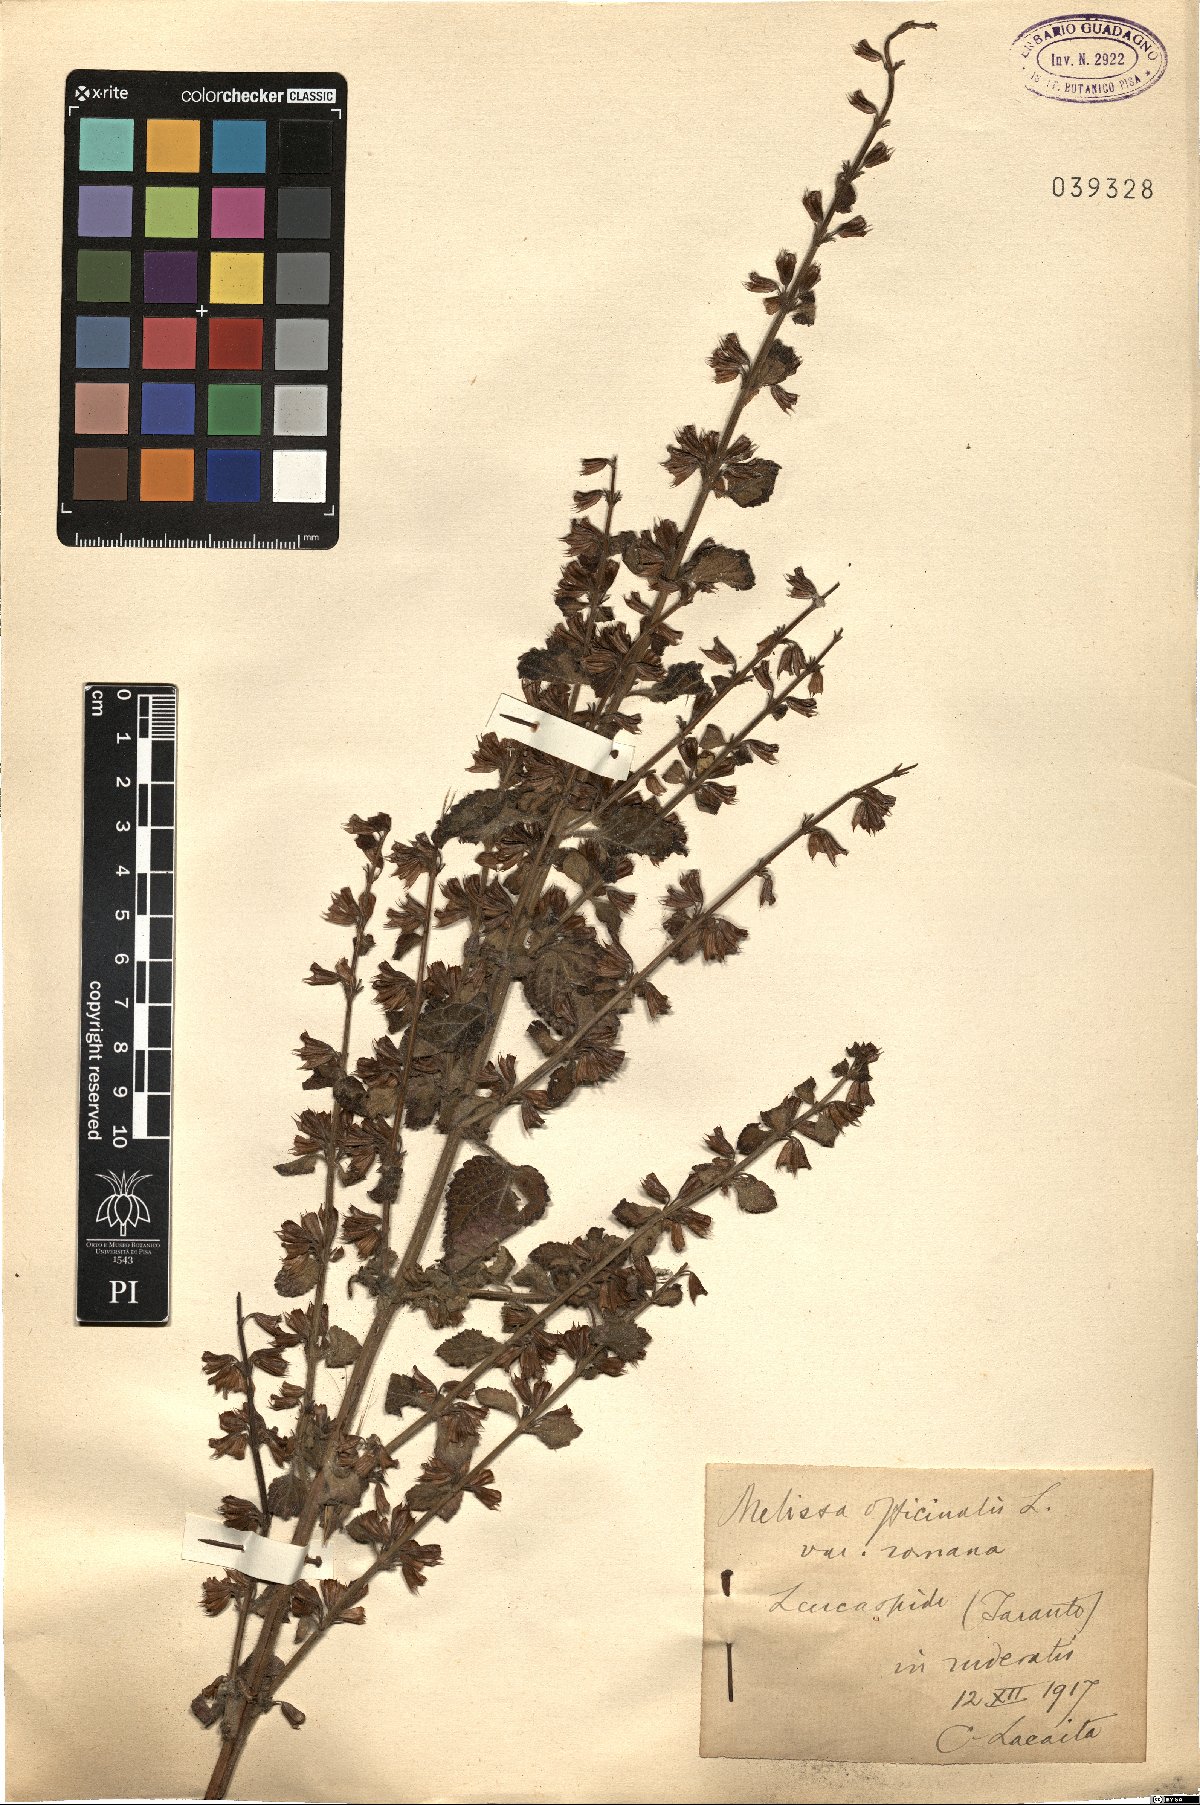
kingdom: Plantae
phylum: Tracheophyta
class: Magnoliopsida
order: Lamiales
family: Lamiaceae
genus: Melissa
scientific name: Melissa officinalis
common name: Balm
